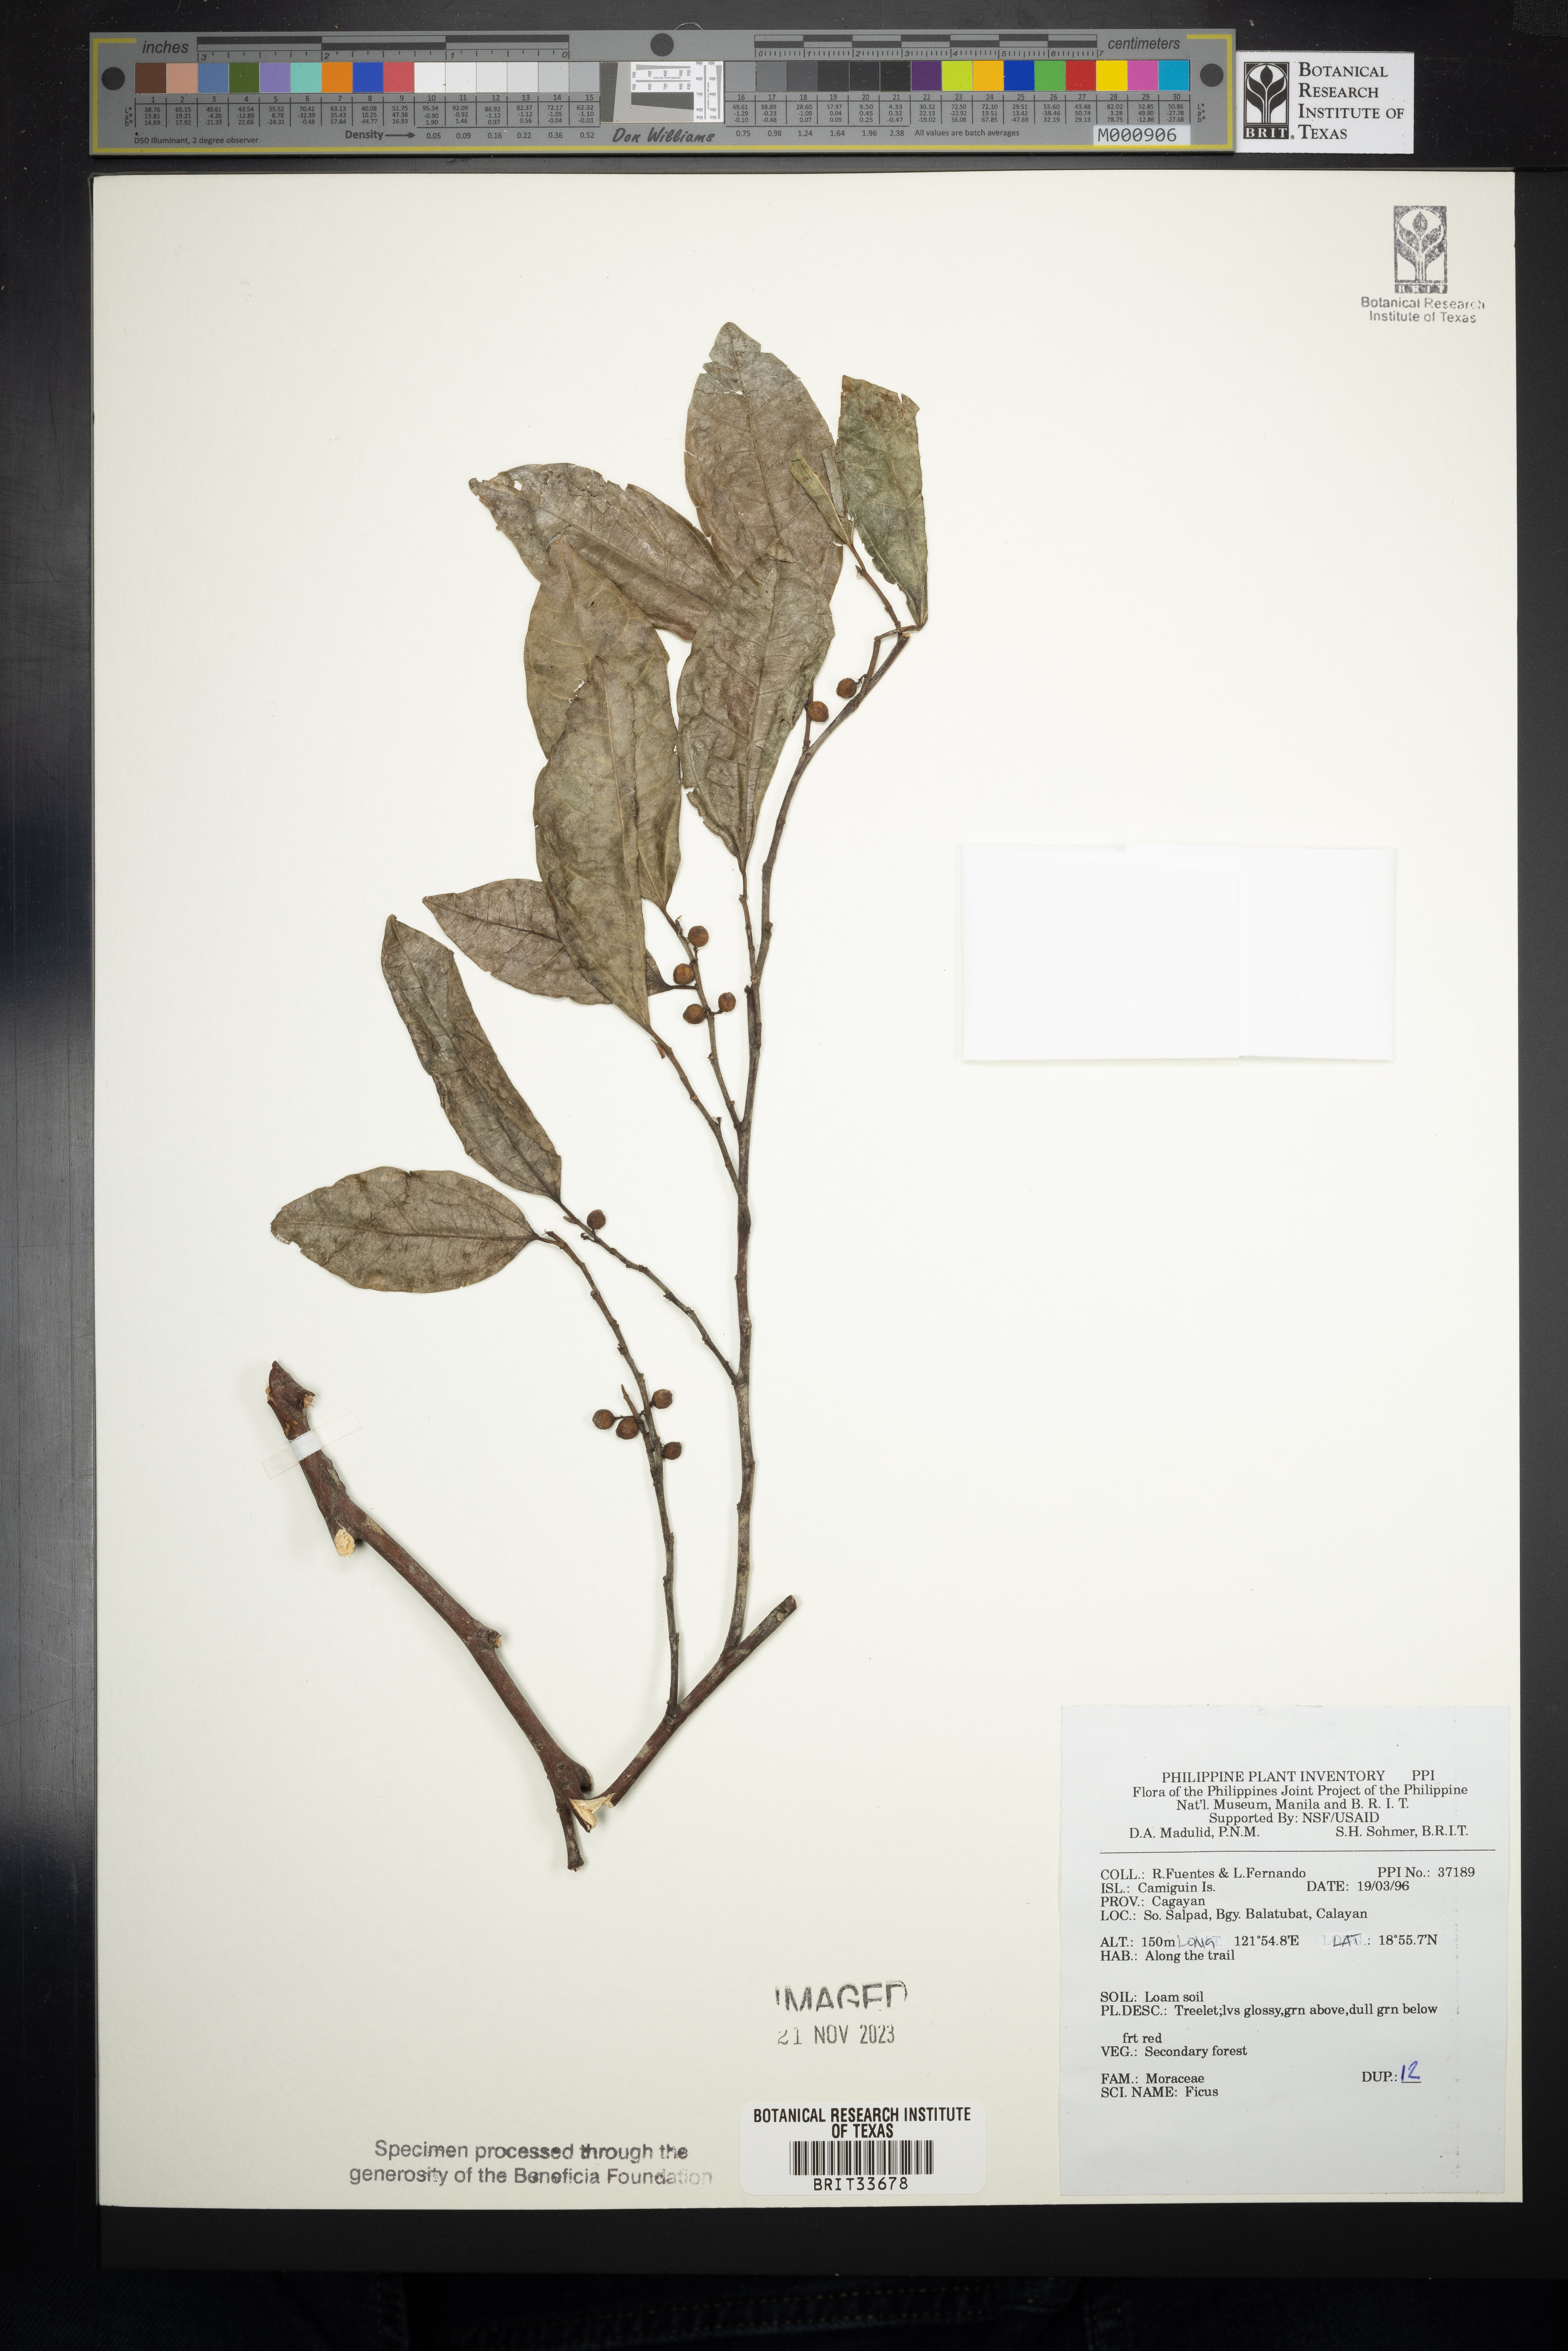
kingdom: Plantae
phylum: Tracheophyta
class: Magnoliopsida
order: Rosales
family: Moraceae
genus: Ficus
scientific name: Ficus
